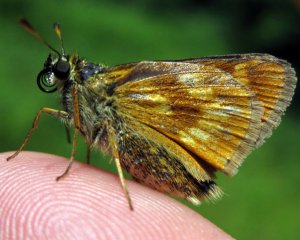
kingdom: Animalia
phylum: Arthropoda
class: Insecta
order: Lepidoptera
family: Hesperiidae
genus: Polites
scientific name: Polites
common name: Long Dash Skipper
